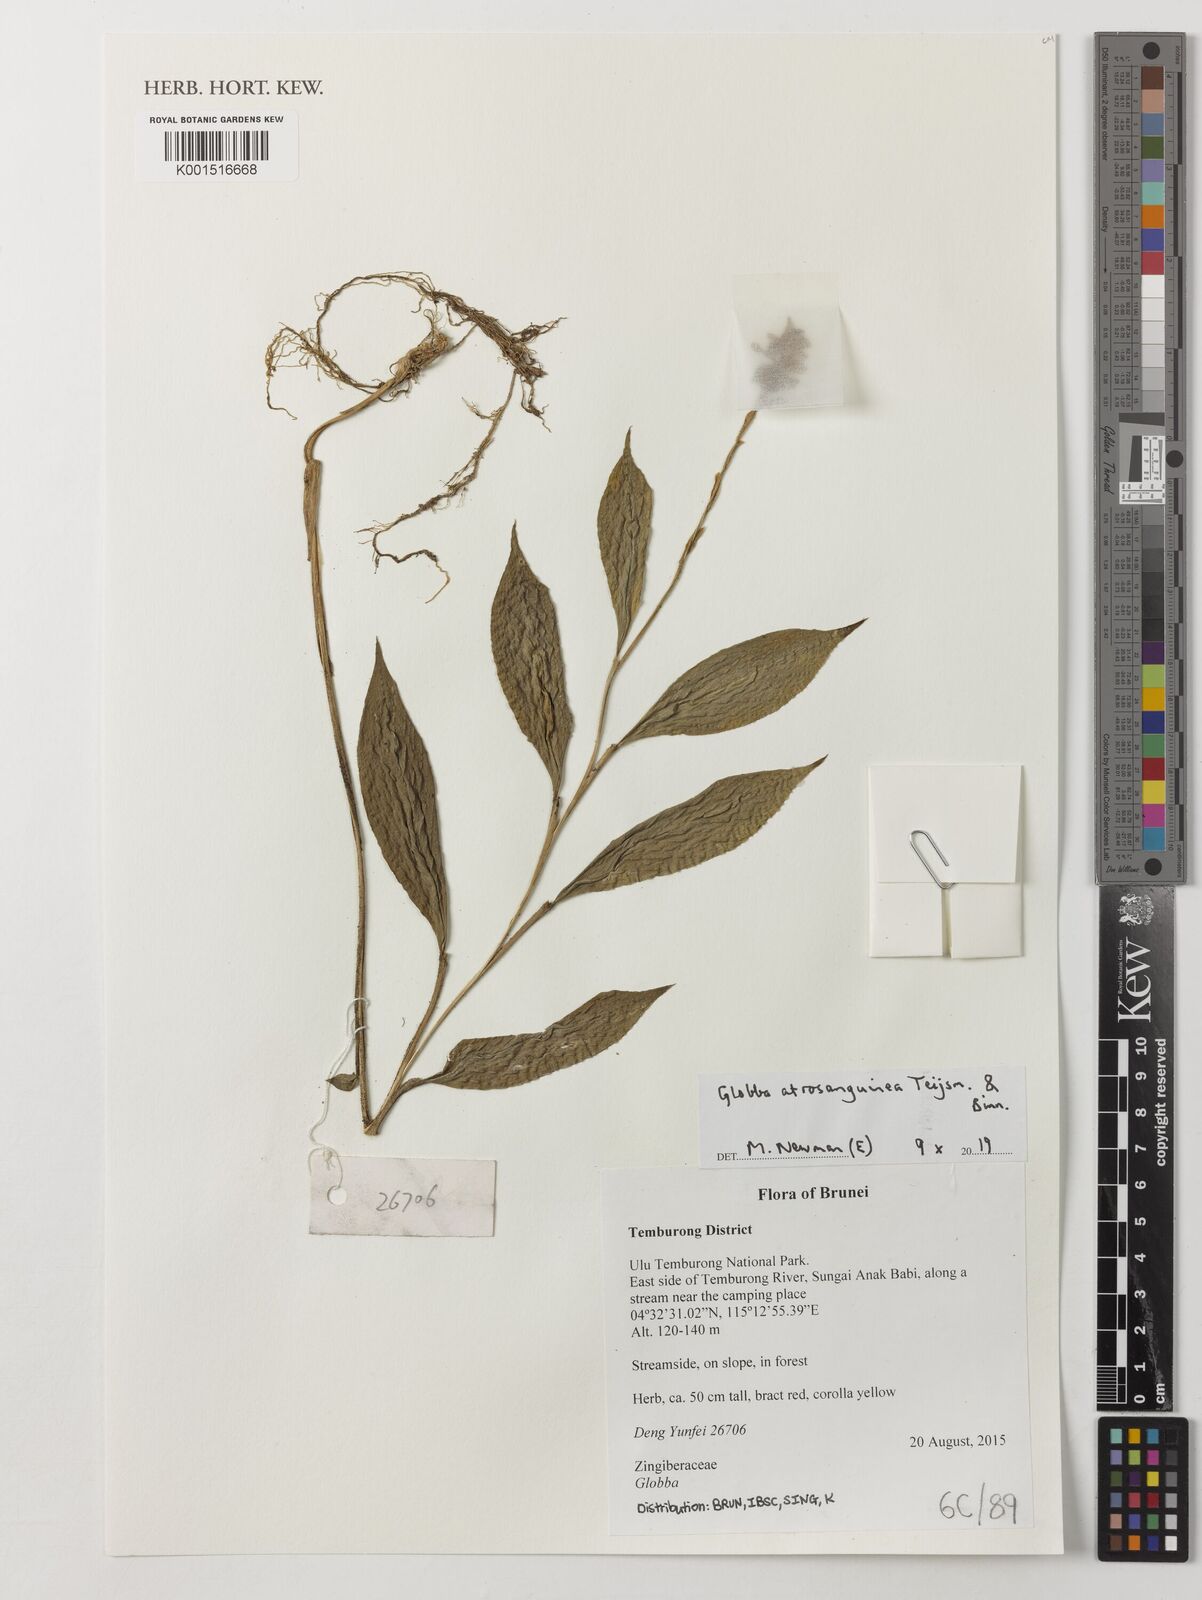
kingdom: Plantae
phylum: Tracheophyta
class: Liliopsida
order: Zingiberales
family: Zingiberaceae
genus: Globba
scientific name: Globba atrosanguinea
